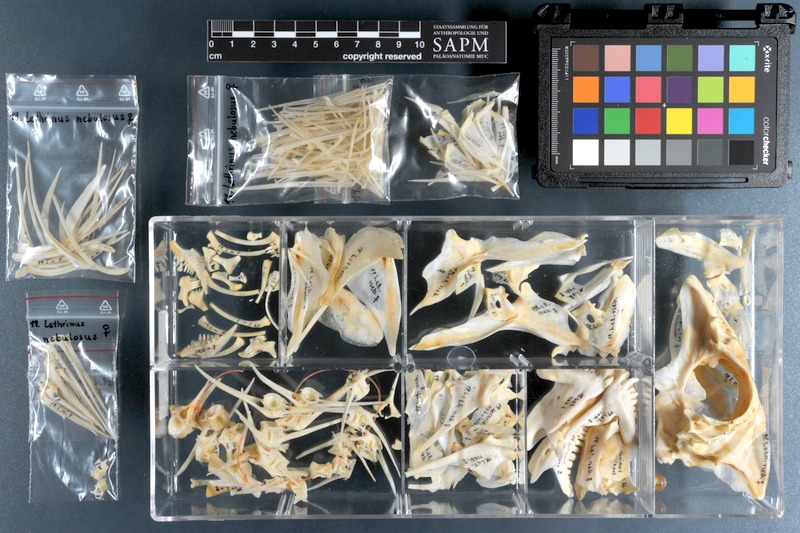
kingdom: Animalia
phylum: Chordata
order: Perciformes
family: Lethrinidae
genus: Lethrinus
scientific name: Lethrinus nebulosus
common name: Spangled emperor
